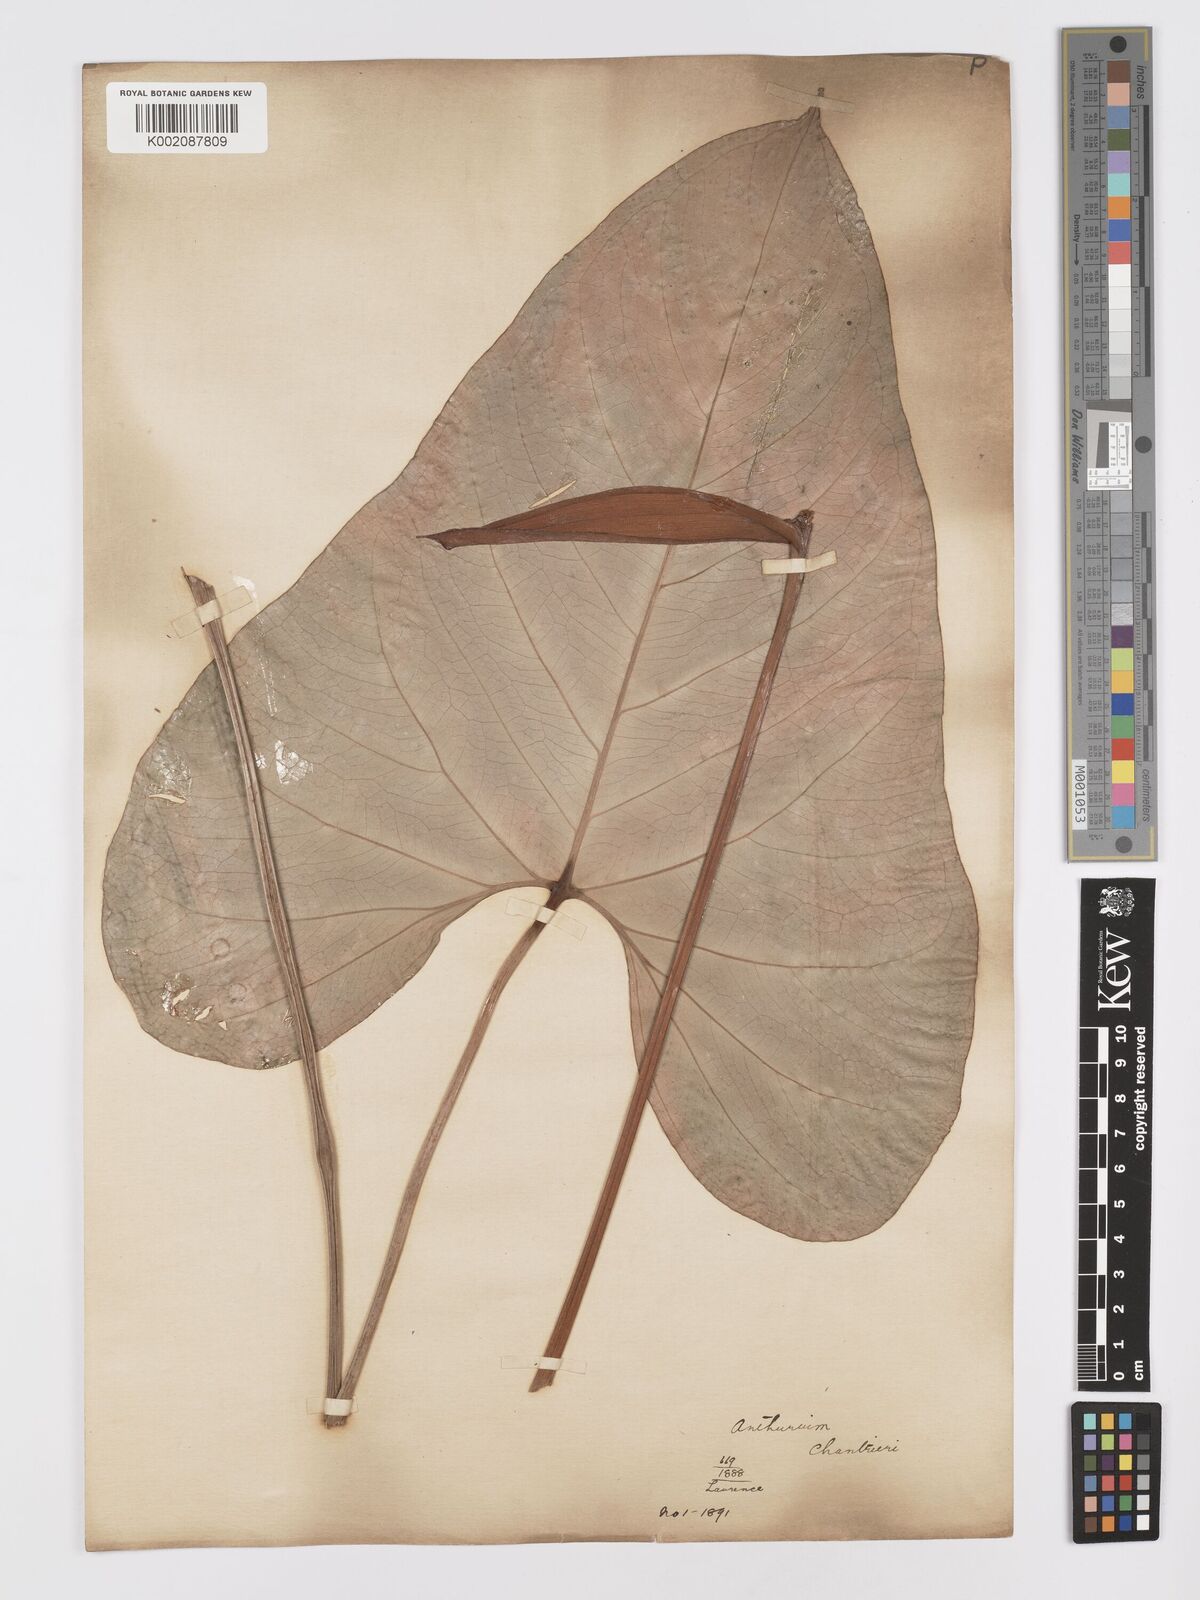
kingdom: Plantae
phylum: Tracheophyta
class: Liliopsida
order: Alismatales
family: Araceae
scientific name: Araceae
